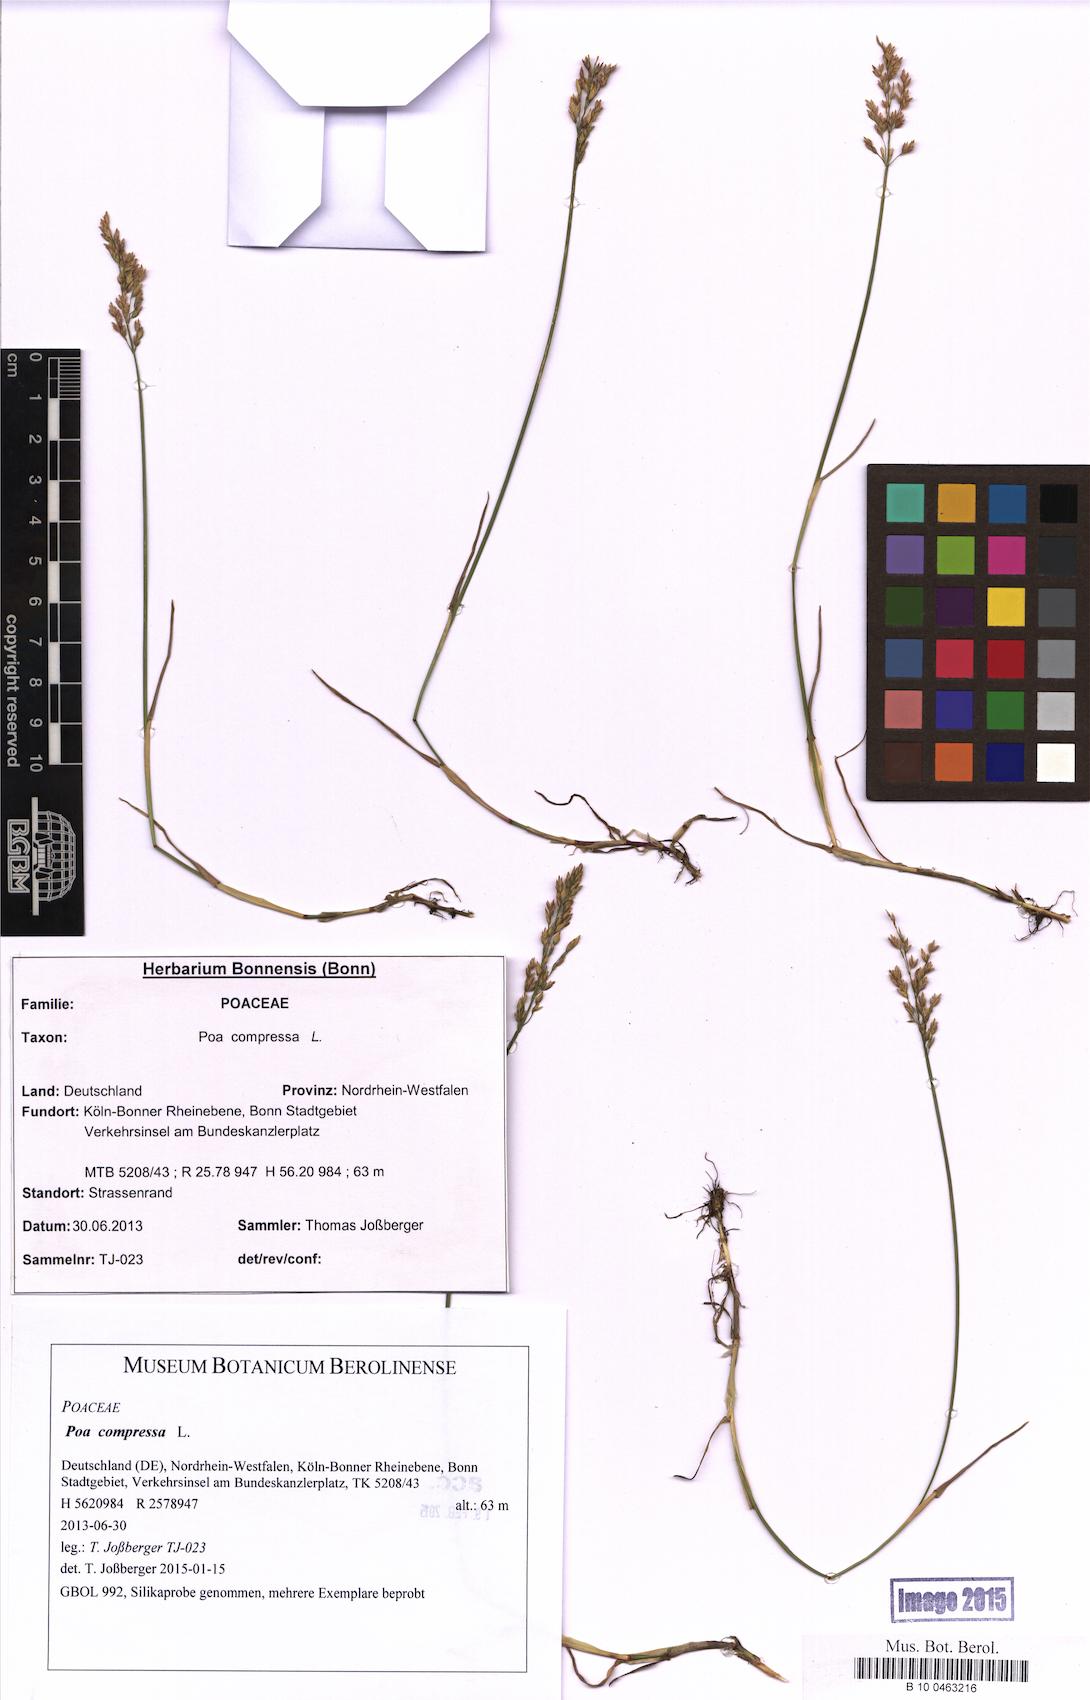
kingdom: Plantae
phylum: Tracheophyta
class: Liliopsida
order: Poales
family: Poaceae
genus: Poa
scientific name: Poa compressa
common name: Canada bluegrass
